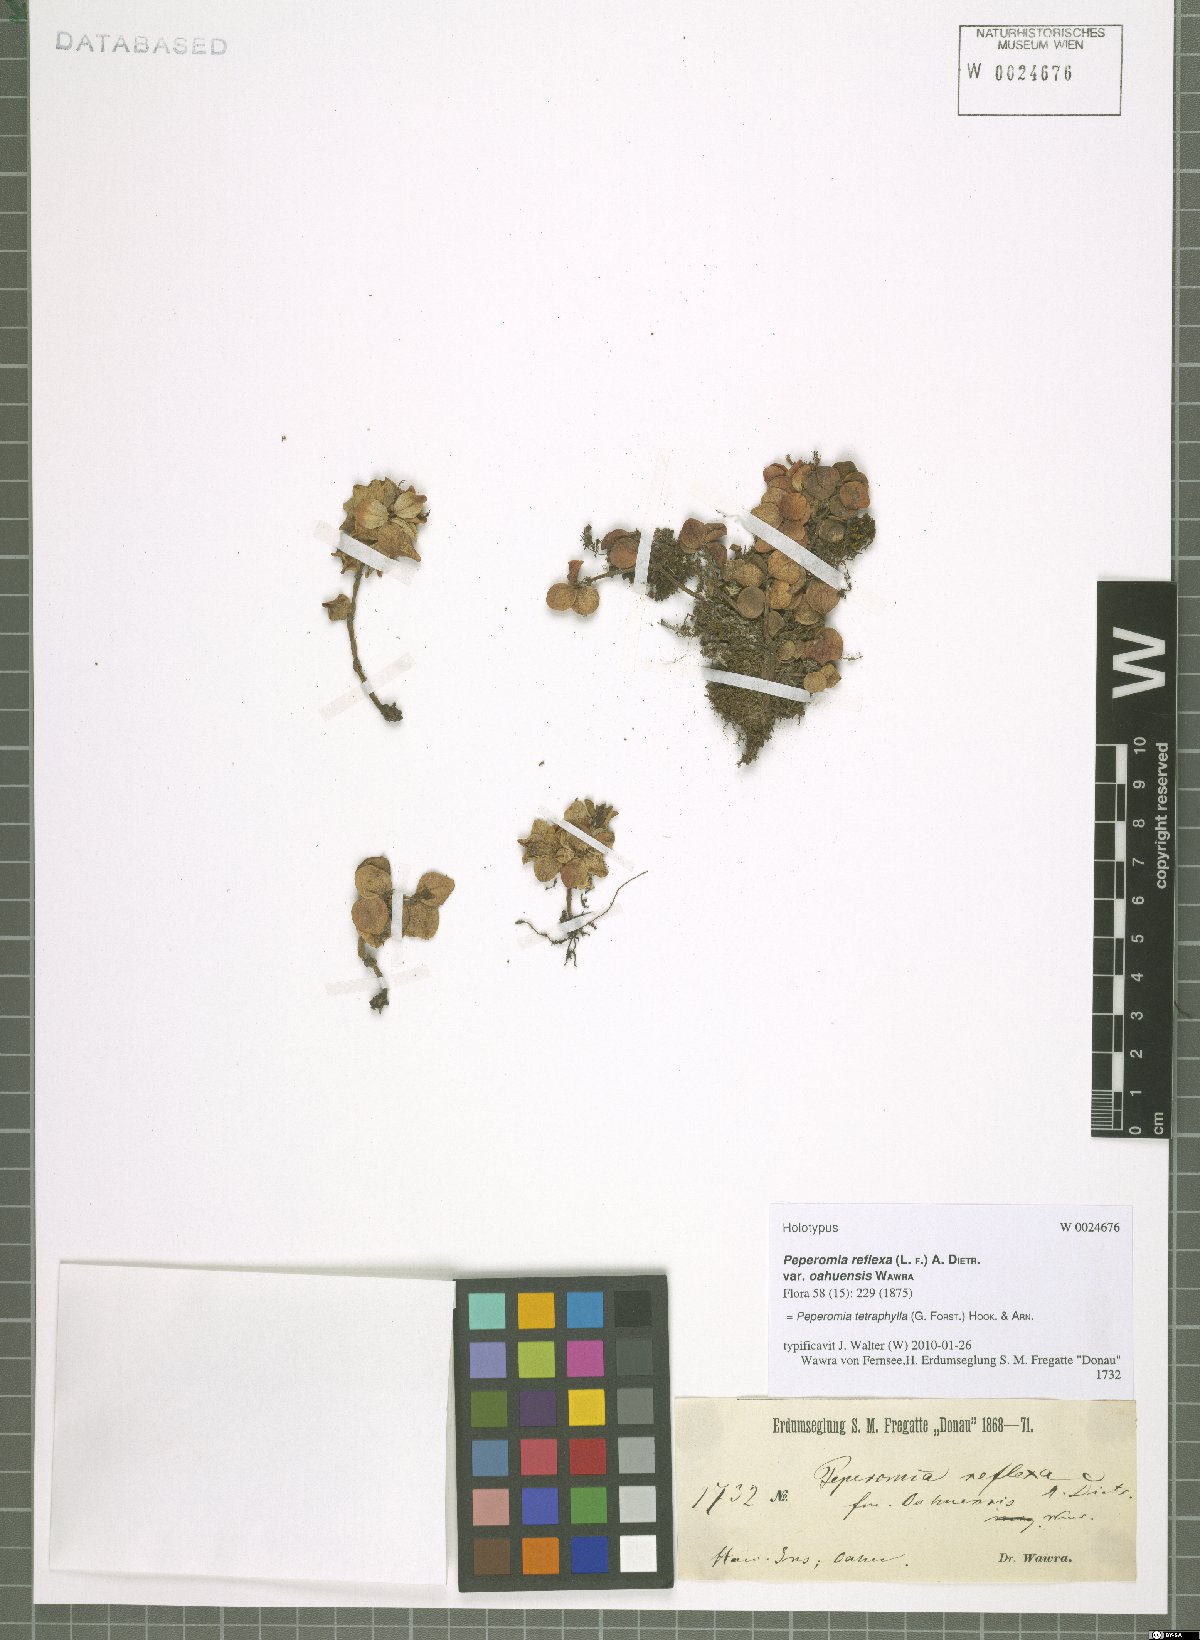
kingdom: Plantae
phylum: Tracheophyta
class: Magnoliopsida
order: Piperales
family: Piperaceae
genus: Peperomia
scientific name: Peperomia tetraphylla
